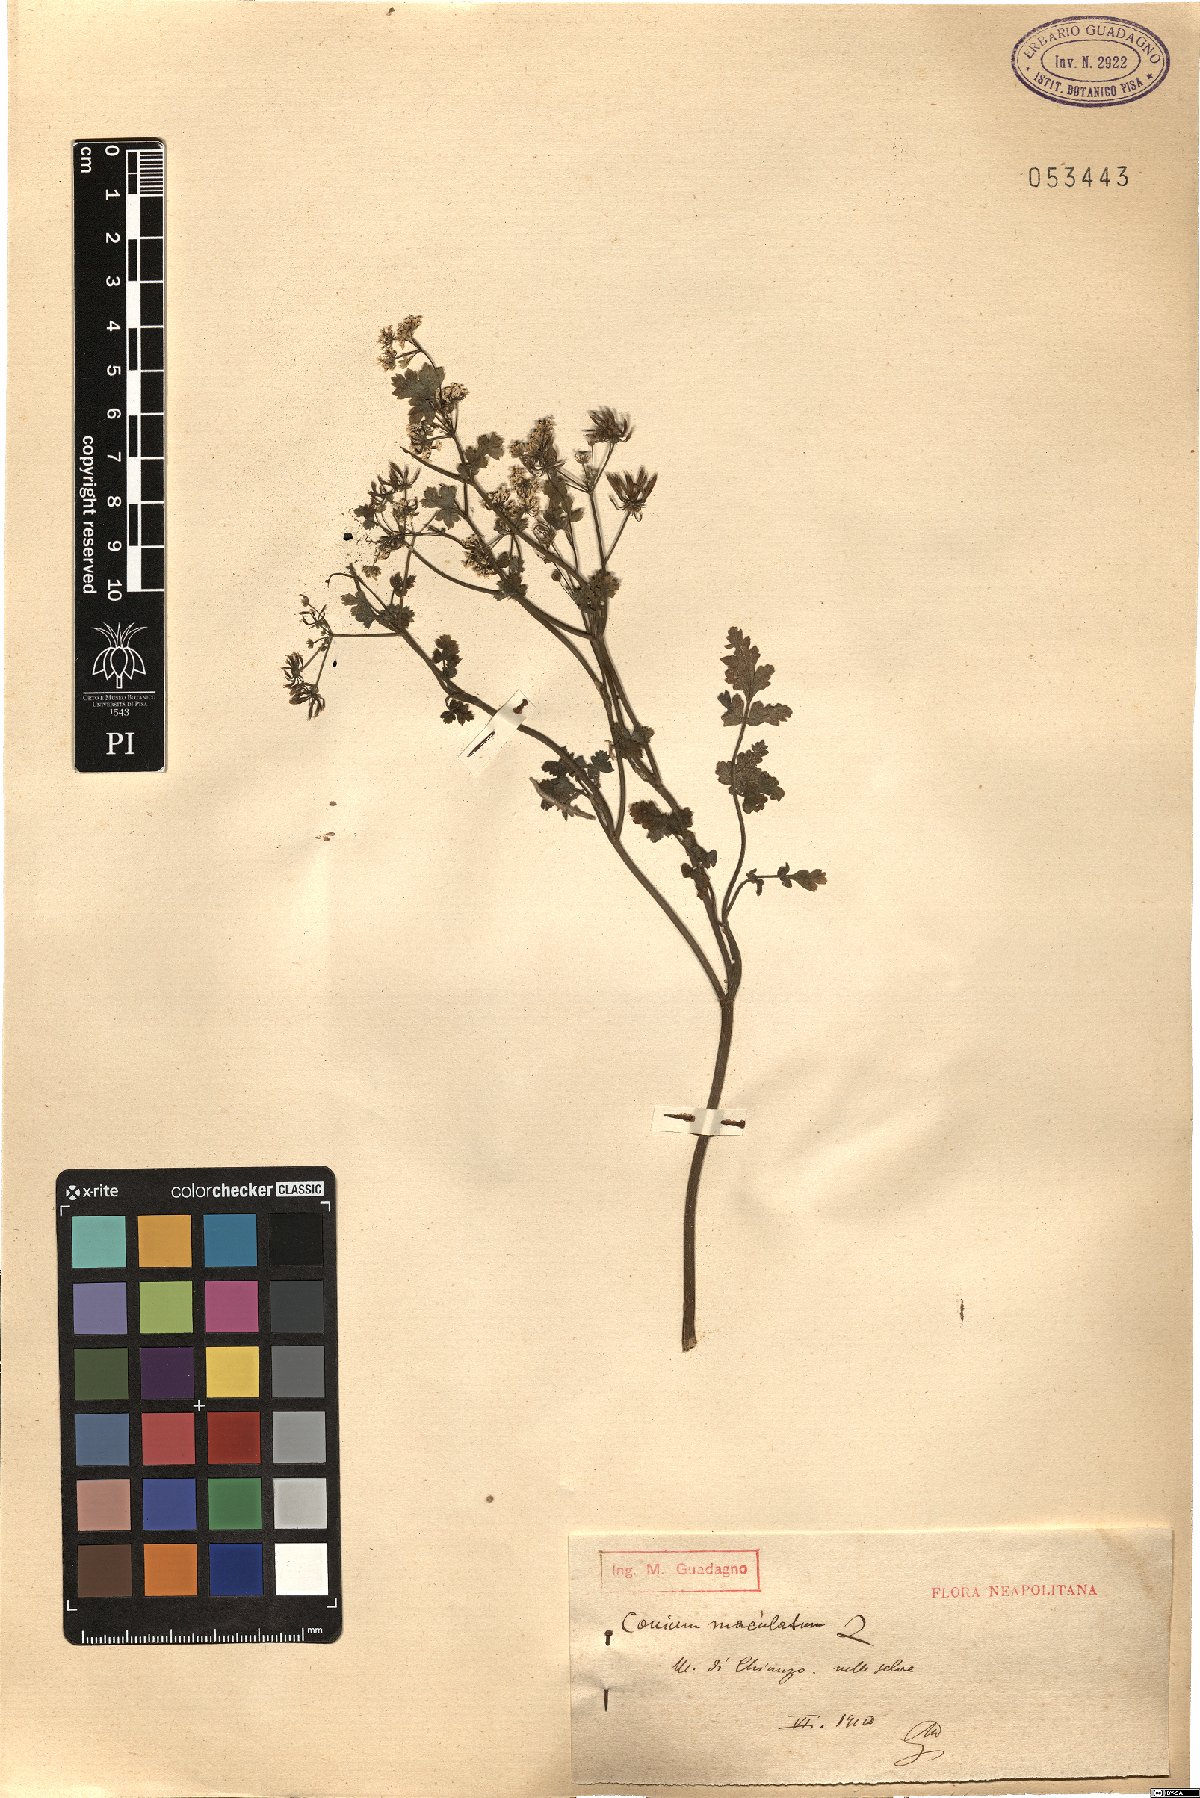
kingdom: Plantae
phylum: Tracheophyta
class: Magnoliopsida
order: Apiales
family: Apiaceae
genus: Conium
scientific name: Conium maculatum
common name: Hemlock
